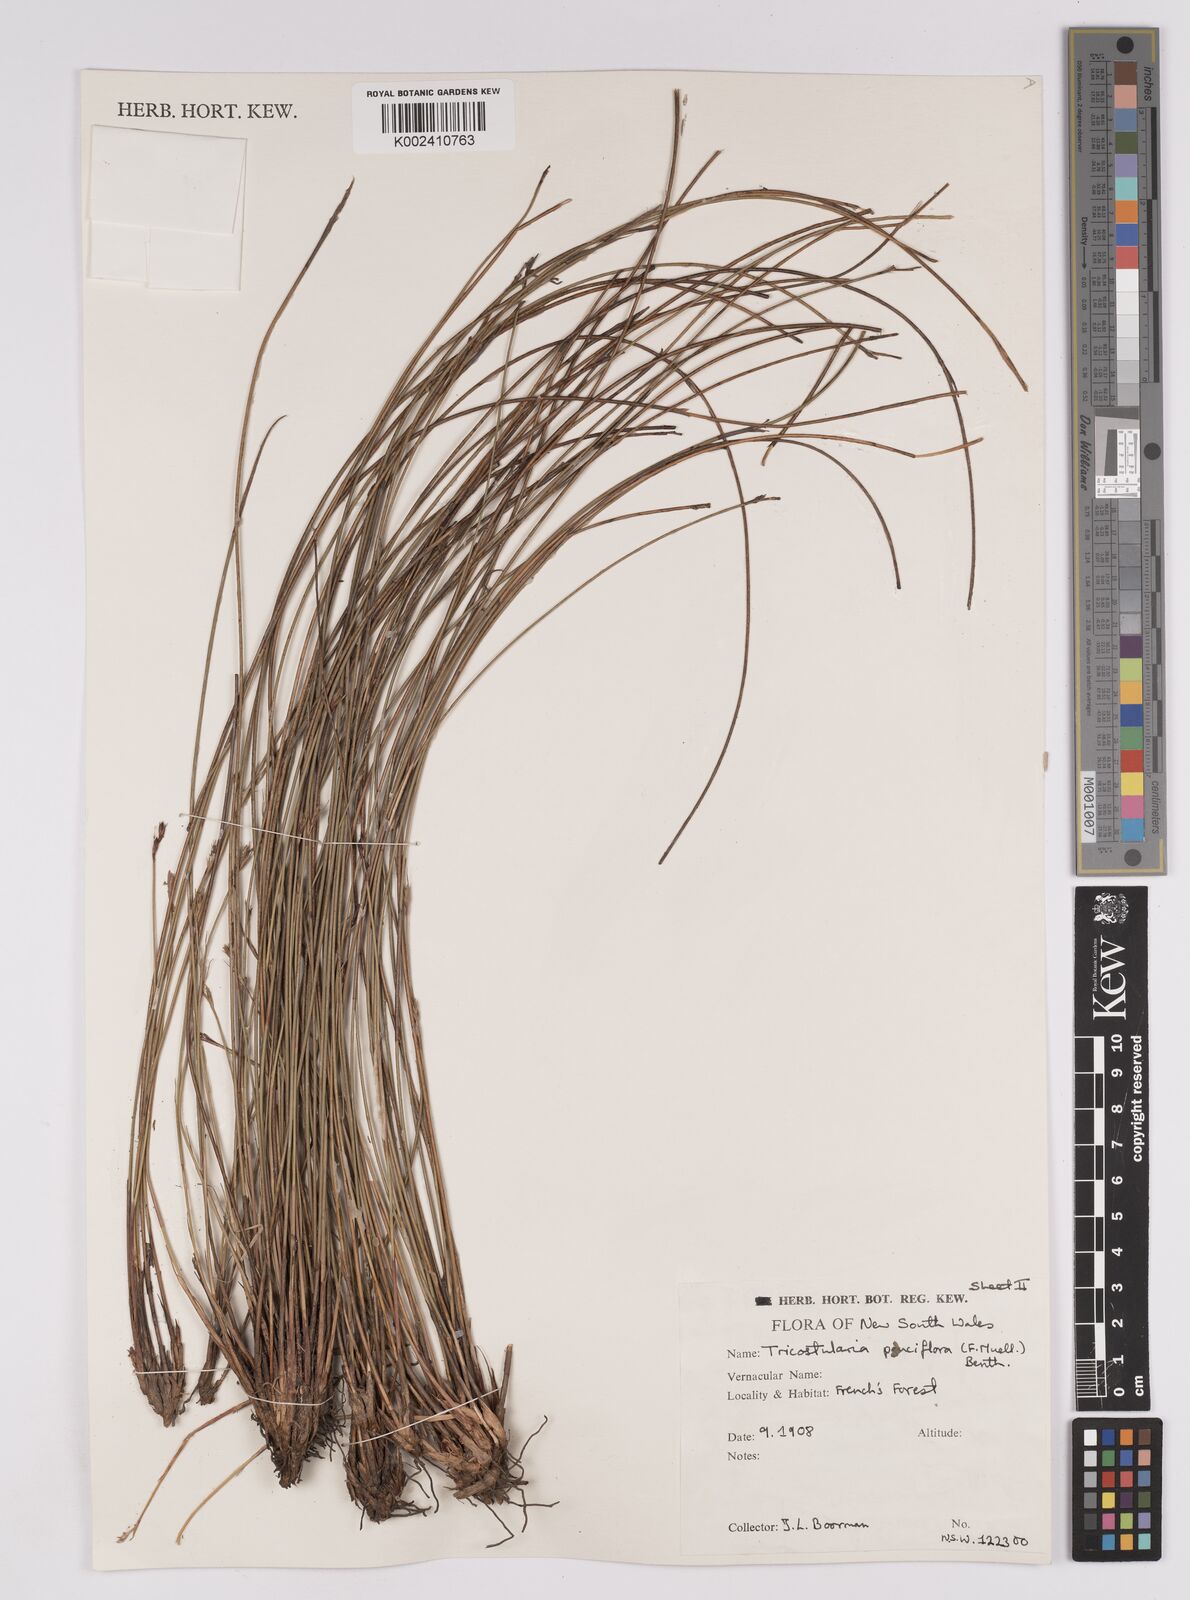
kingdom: Plantae
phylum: Tracheophyta
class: Liliopsida
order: Poales
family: Cyperaceae
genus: Tricostularia
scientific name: Tricostularia pauciflora
